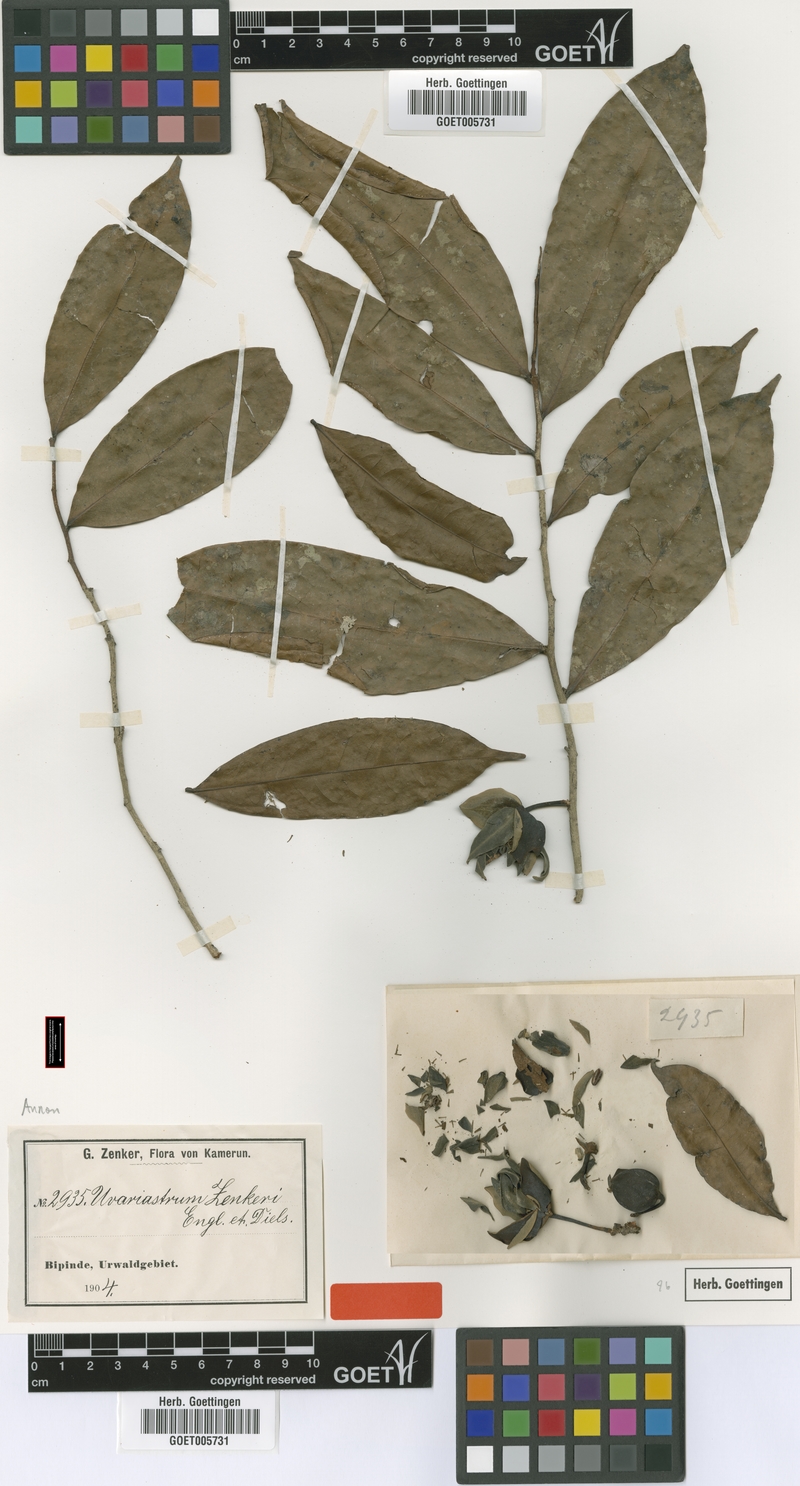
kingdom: Plantae
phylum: Tracheophyta
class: Magnoliopsida
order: Magnoliales
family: Annonaceae
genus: Uvariastrum
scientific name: Uvariastrum zenkeri
